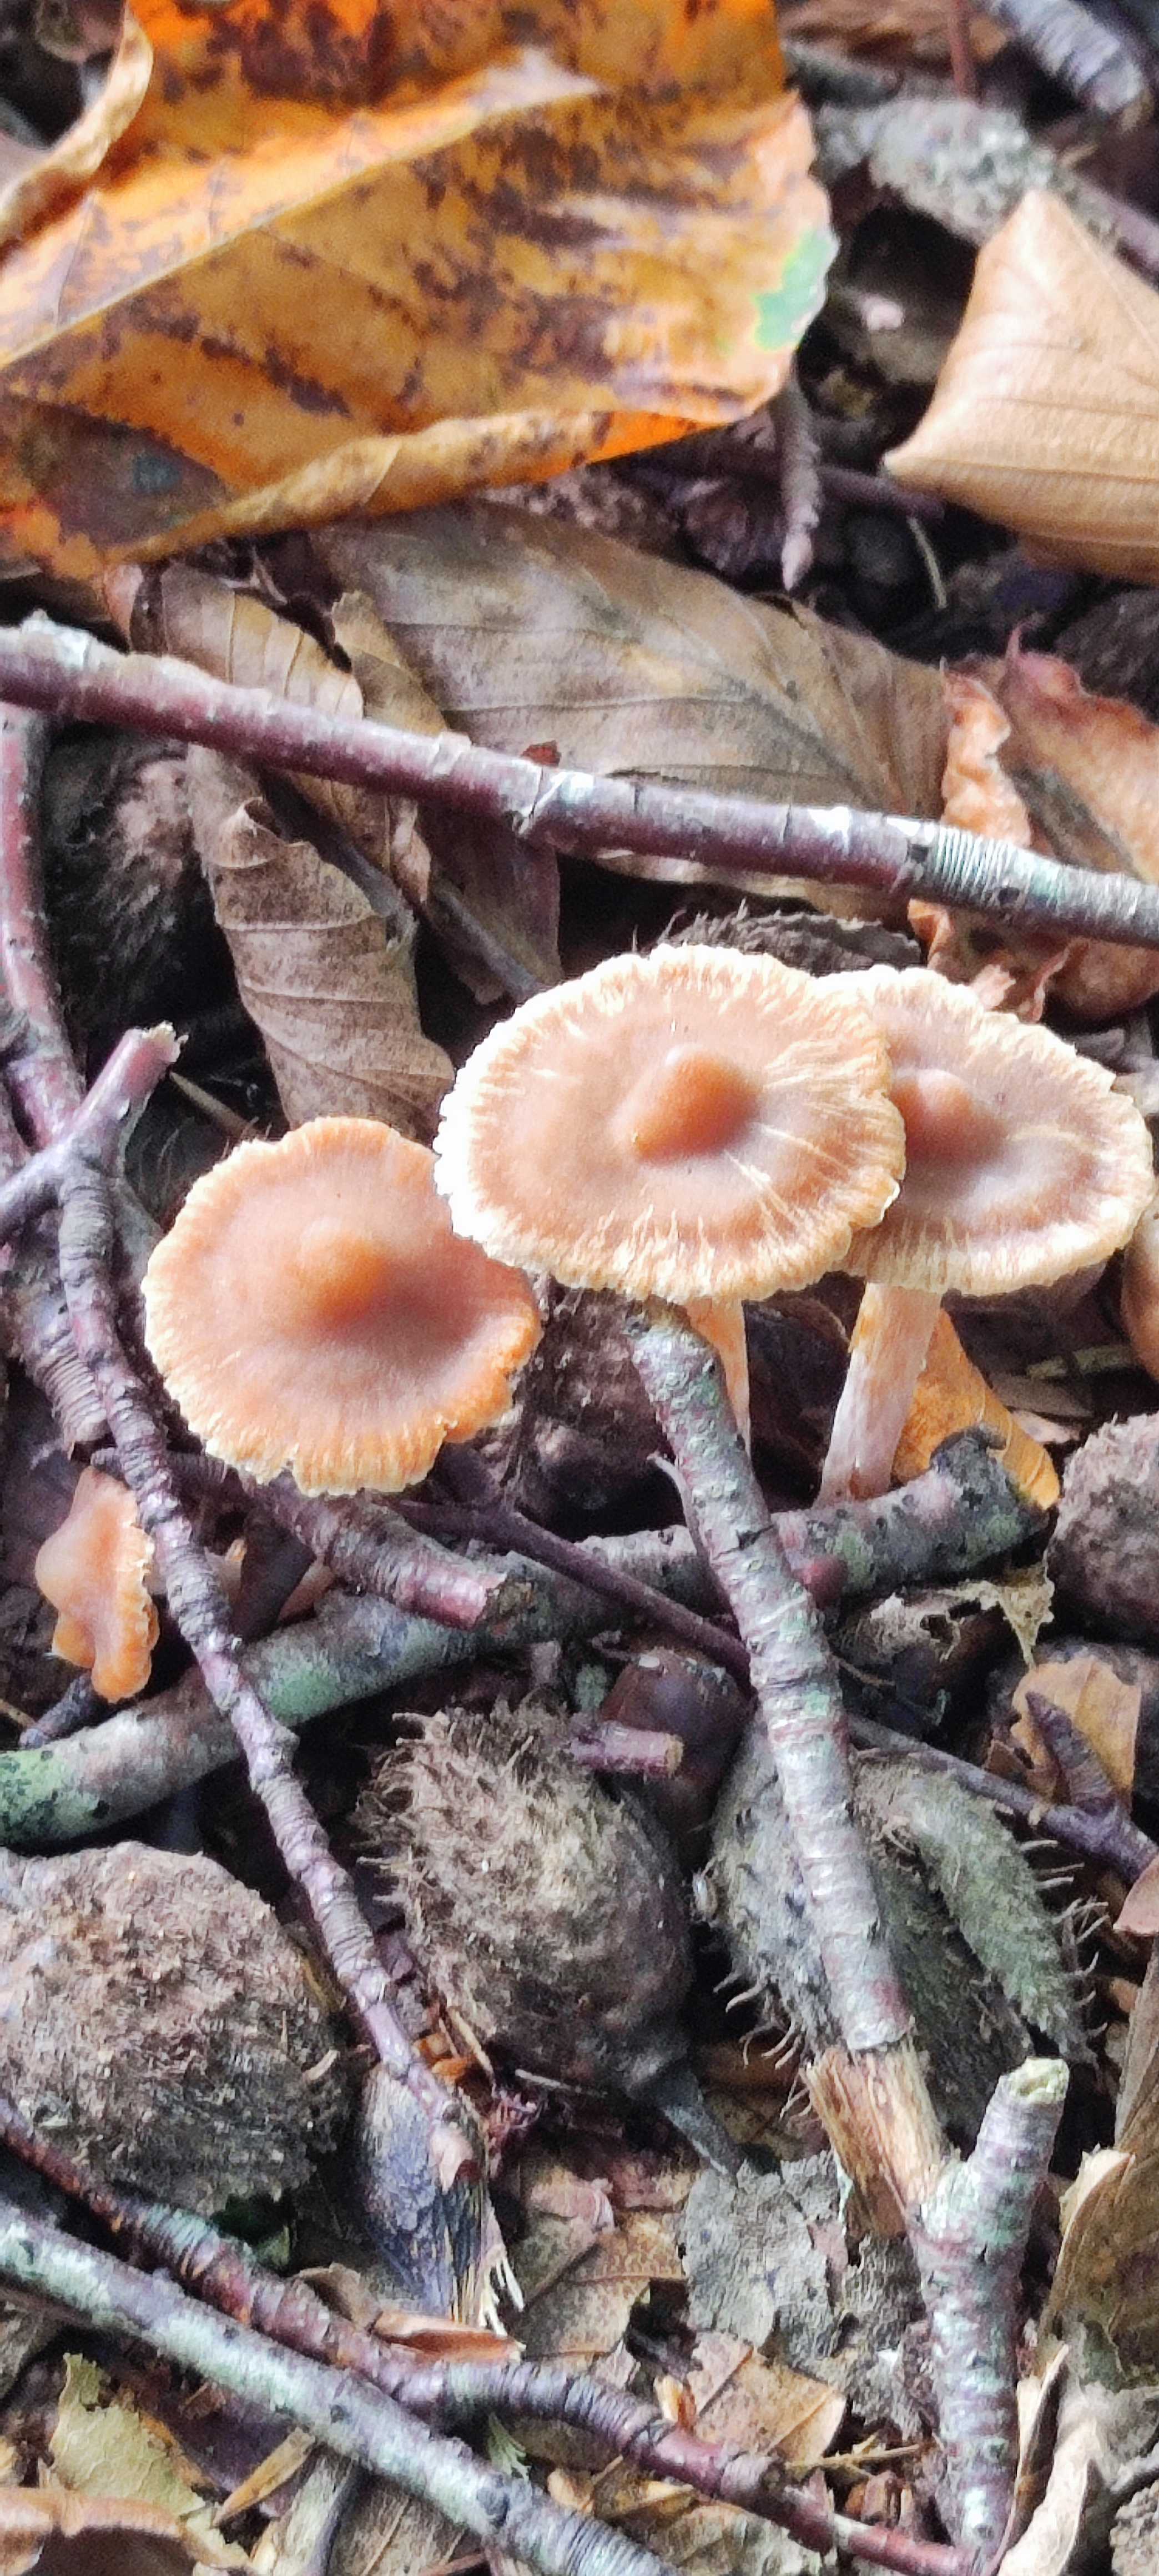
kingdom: Fungi
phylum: Basidiomycota
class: Agaricomycetes
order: Agaricales
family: Cortinariaceae
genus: Cortinarius
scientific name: Cortinarius
